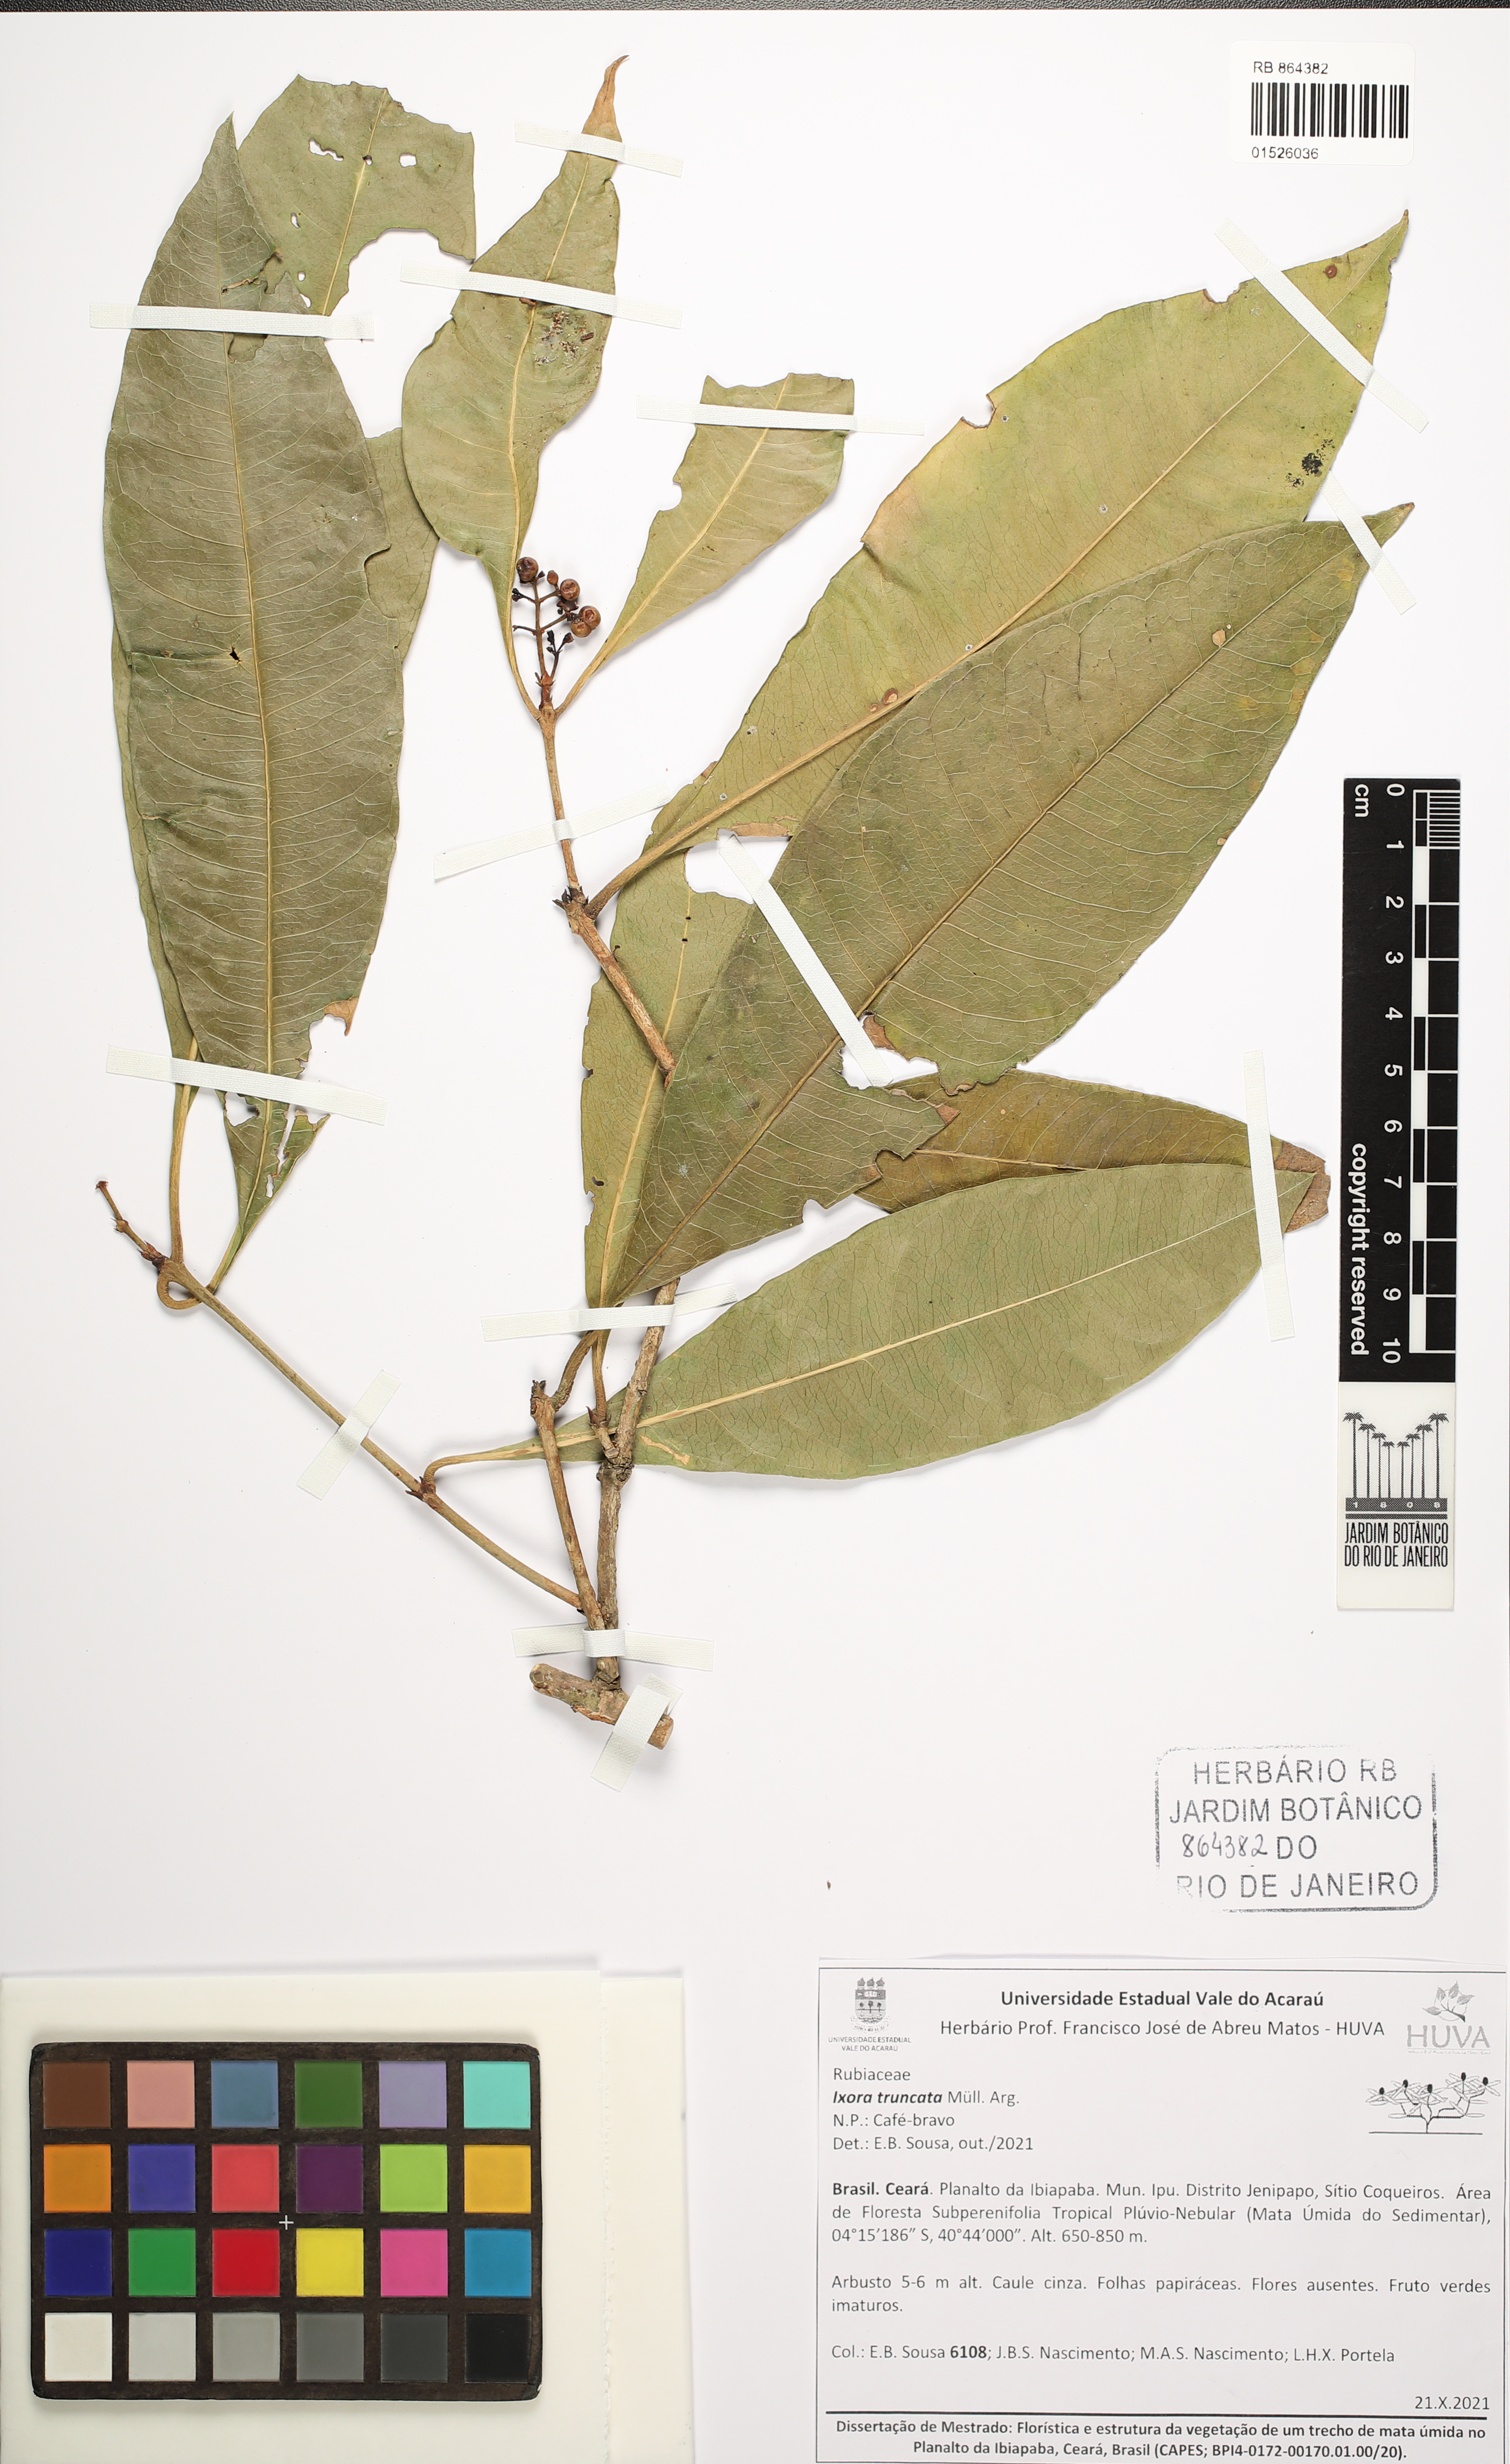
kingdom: Plantae
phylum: Tracheophyta
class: Magnoliopsida
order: Gentianales
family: Rubiaceae
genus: Ixora
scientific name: Ixora gardneriana
